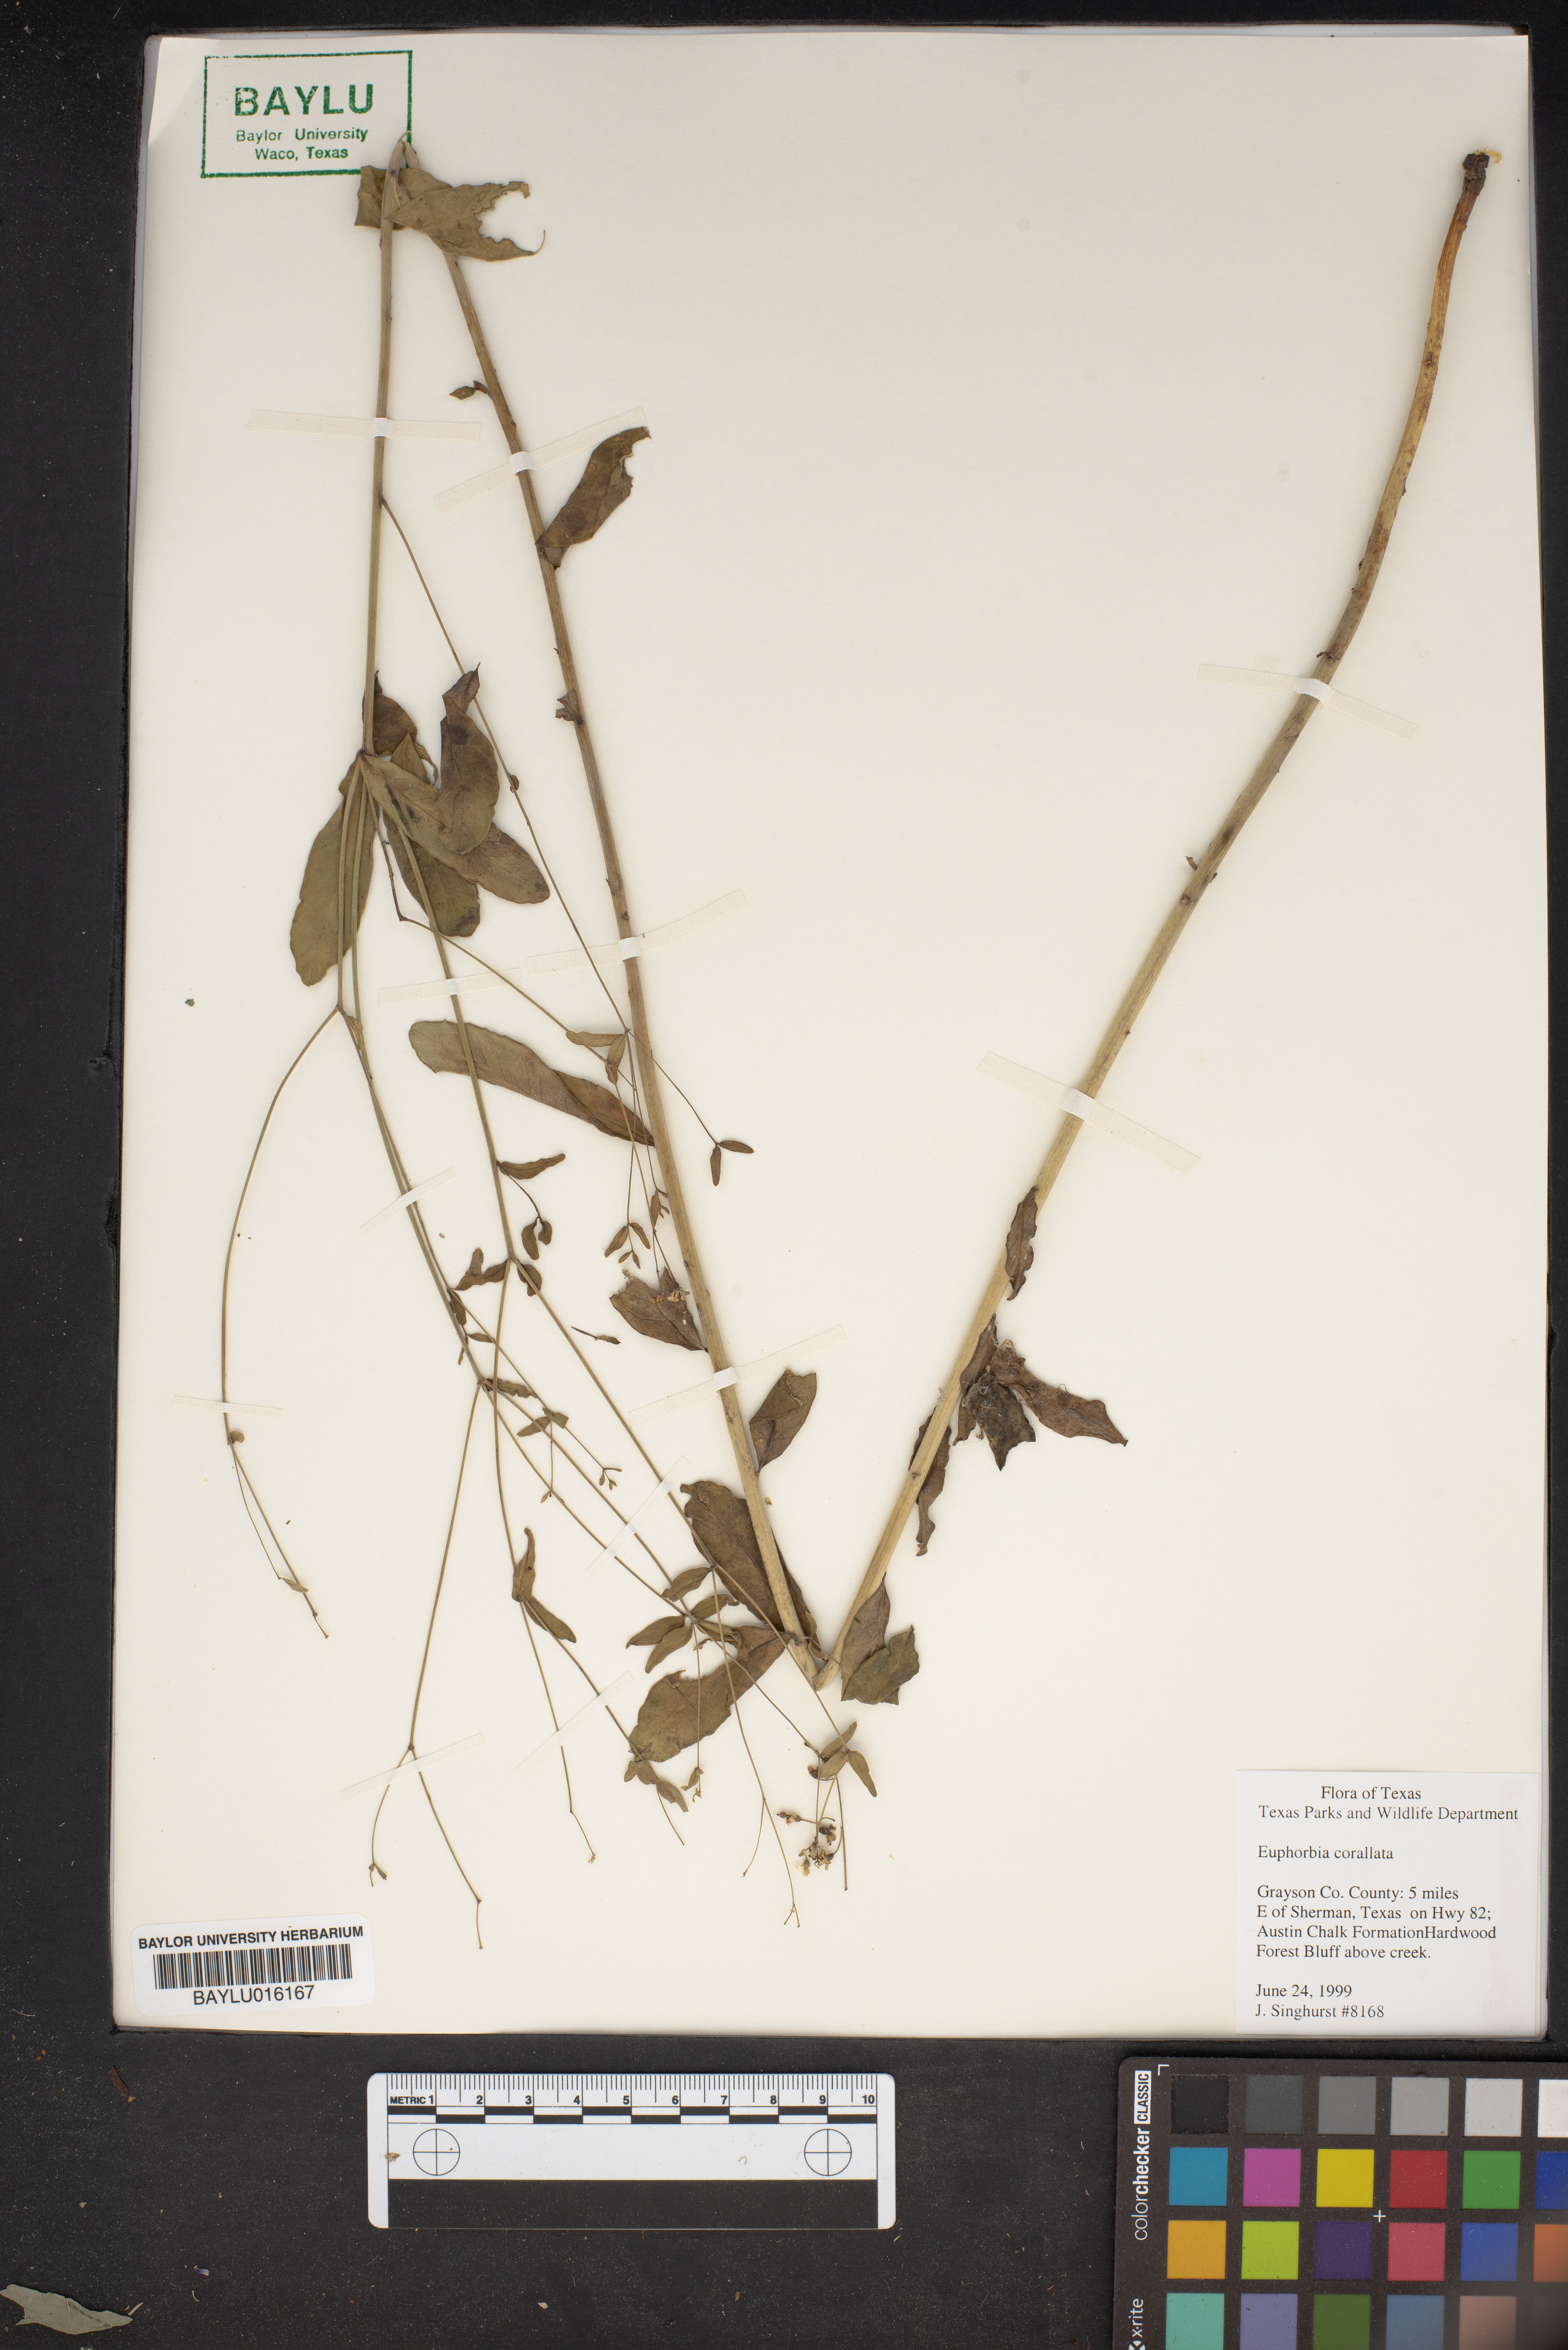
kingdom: Plantae
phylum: Tracheophyta
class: Magnoliopsida
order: Malpighiales
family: Euphorbiaceae
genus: Euphorbia
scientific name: Euphorbia corollata
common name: Flowering spurge
